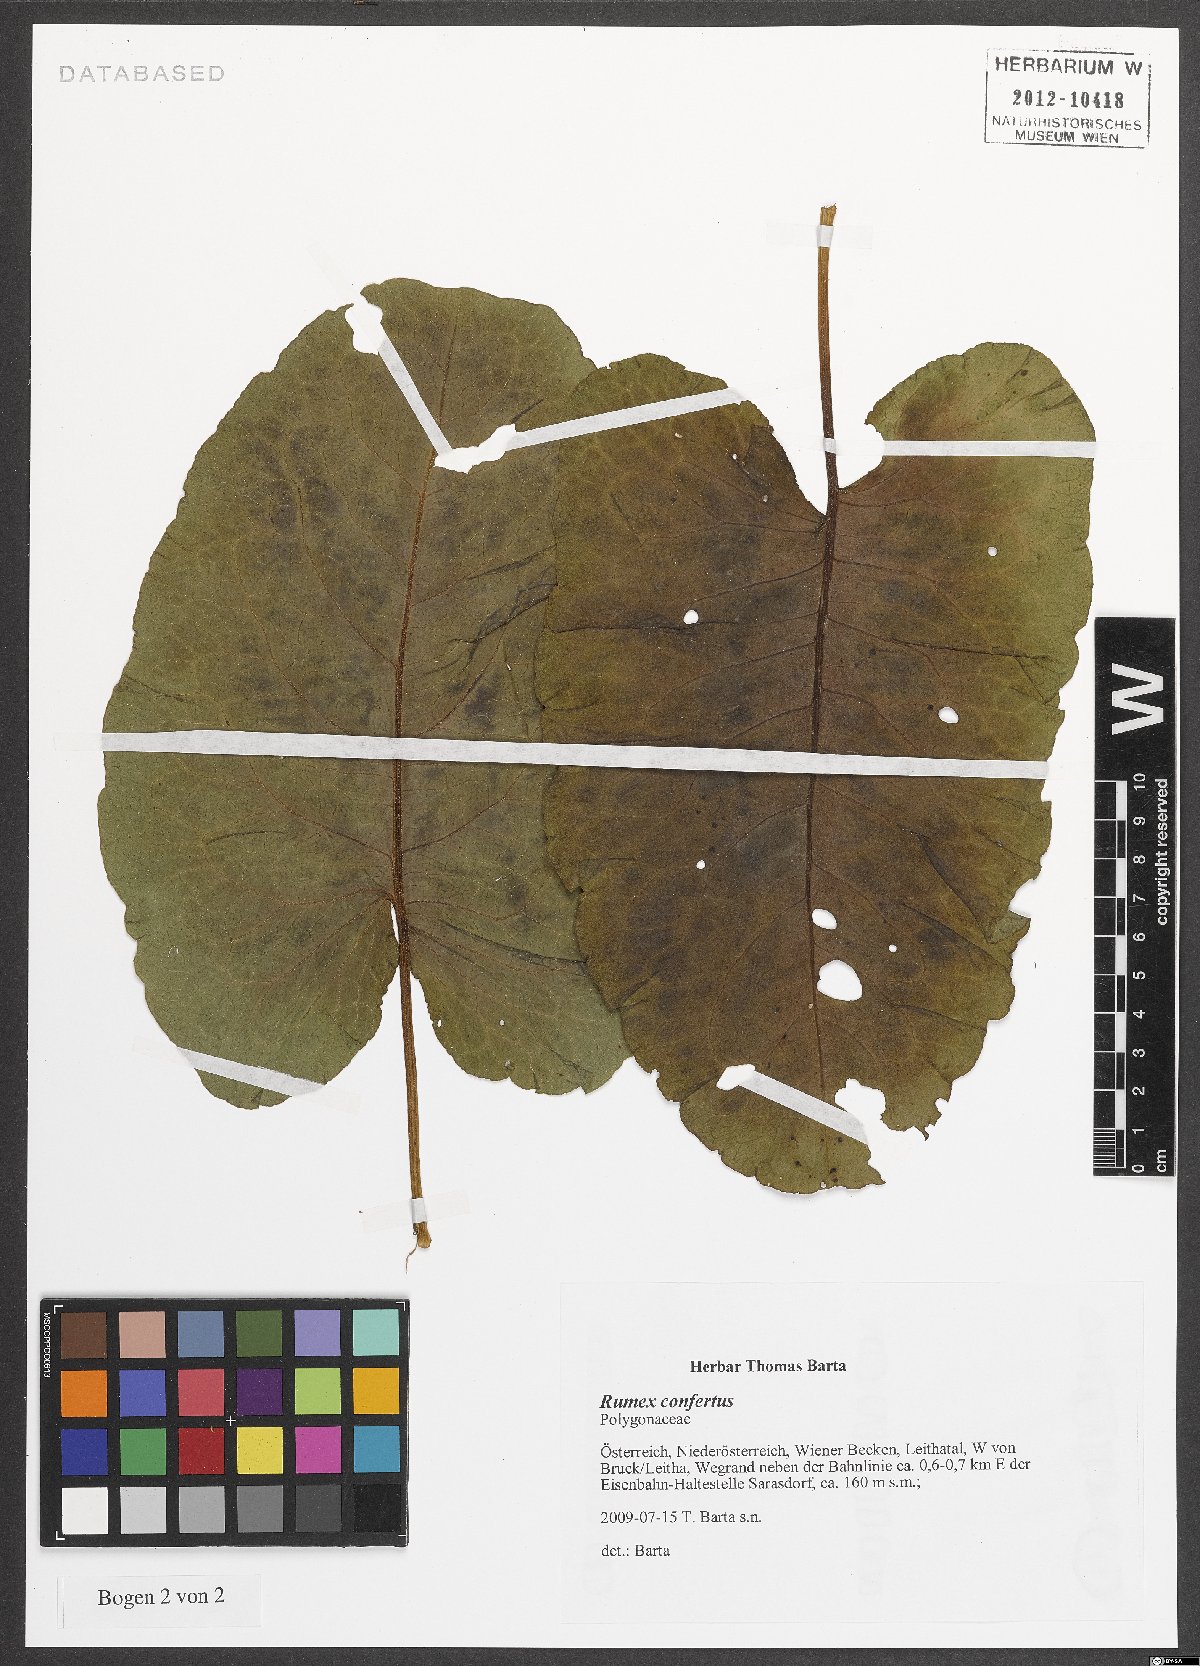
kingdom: Plantae
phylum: Tracheophyta
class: Magnoliopsida
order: Caryophyllales
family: Polygonaceae
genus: Rumex
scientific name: Rumex confertus
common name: Russian dock
